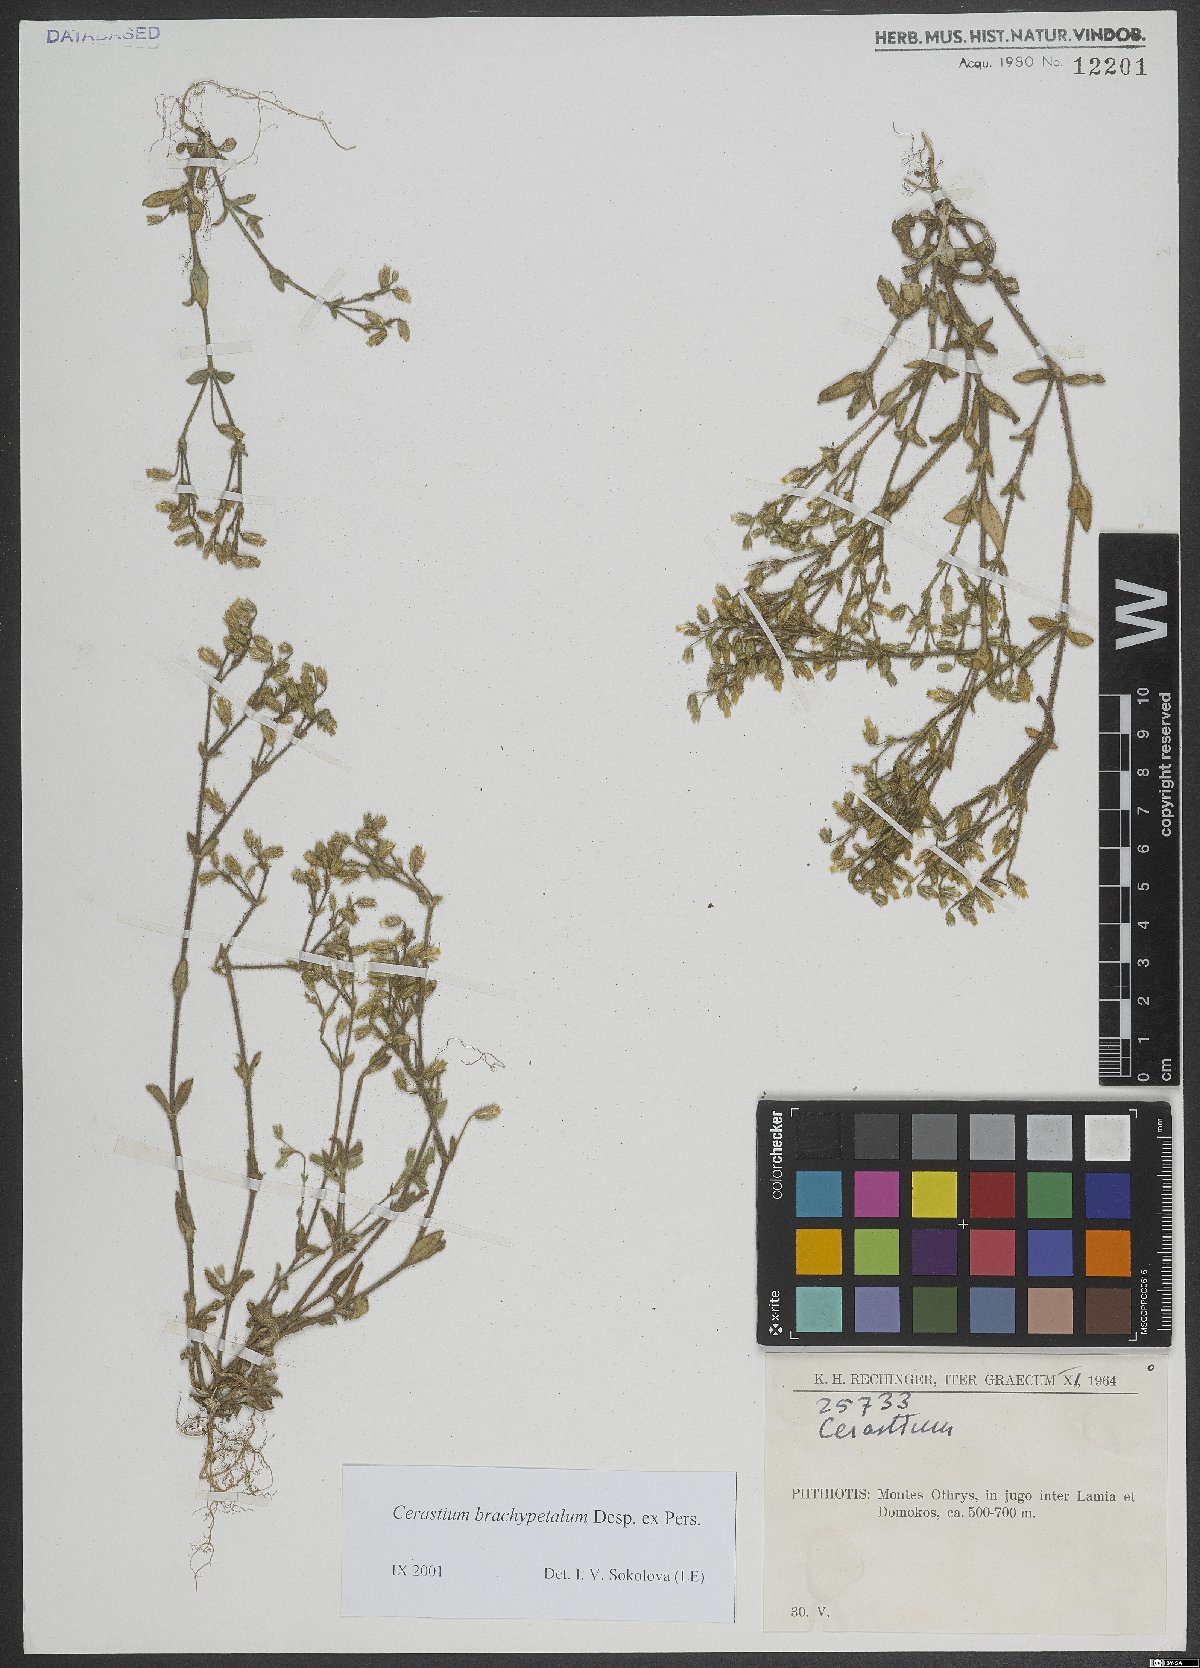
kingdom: Plantae
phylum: Tracheophyta
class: Magnoliopsida
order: Caryophyllales
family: Caryophyllaceae
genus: Cerastium
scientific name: Cerastium brachypetalum
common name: Grey mouse-ear
